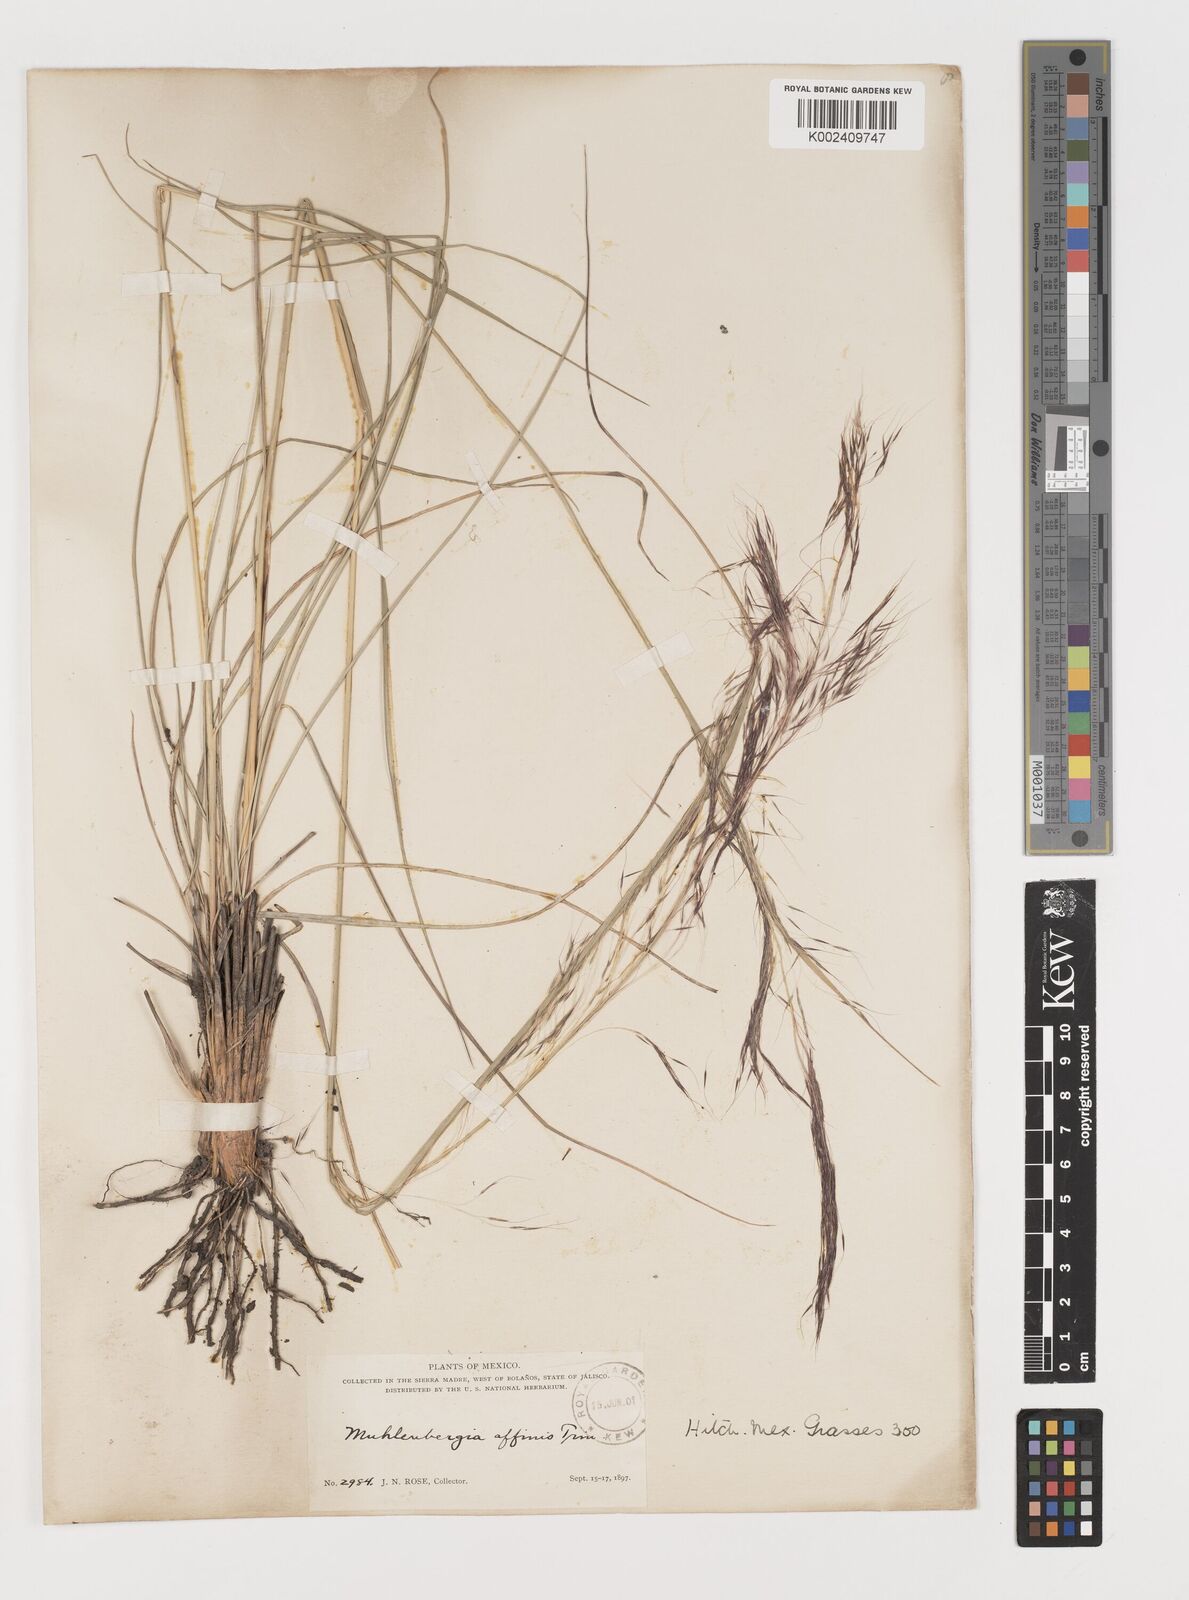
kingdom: Plantae
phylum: Tracheophyta
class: Liliopsida
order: Poales
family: Poaceae
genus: Muhlenbergia
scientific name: Muhlenbergia rigida
